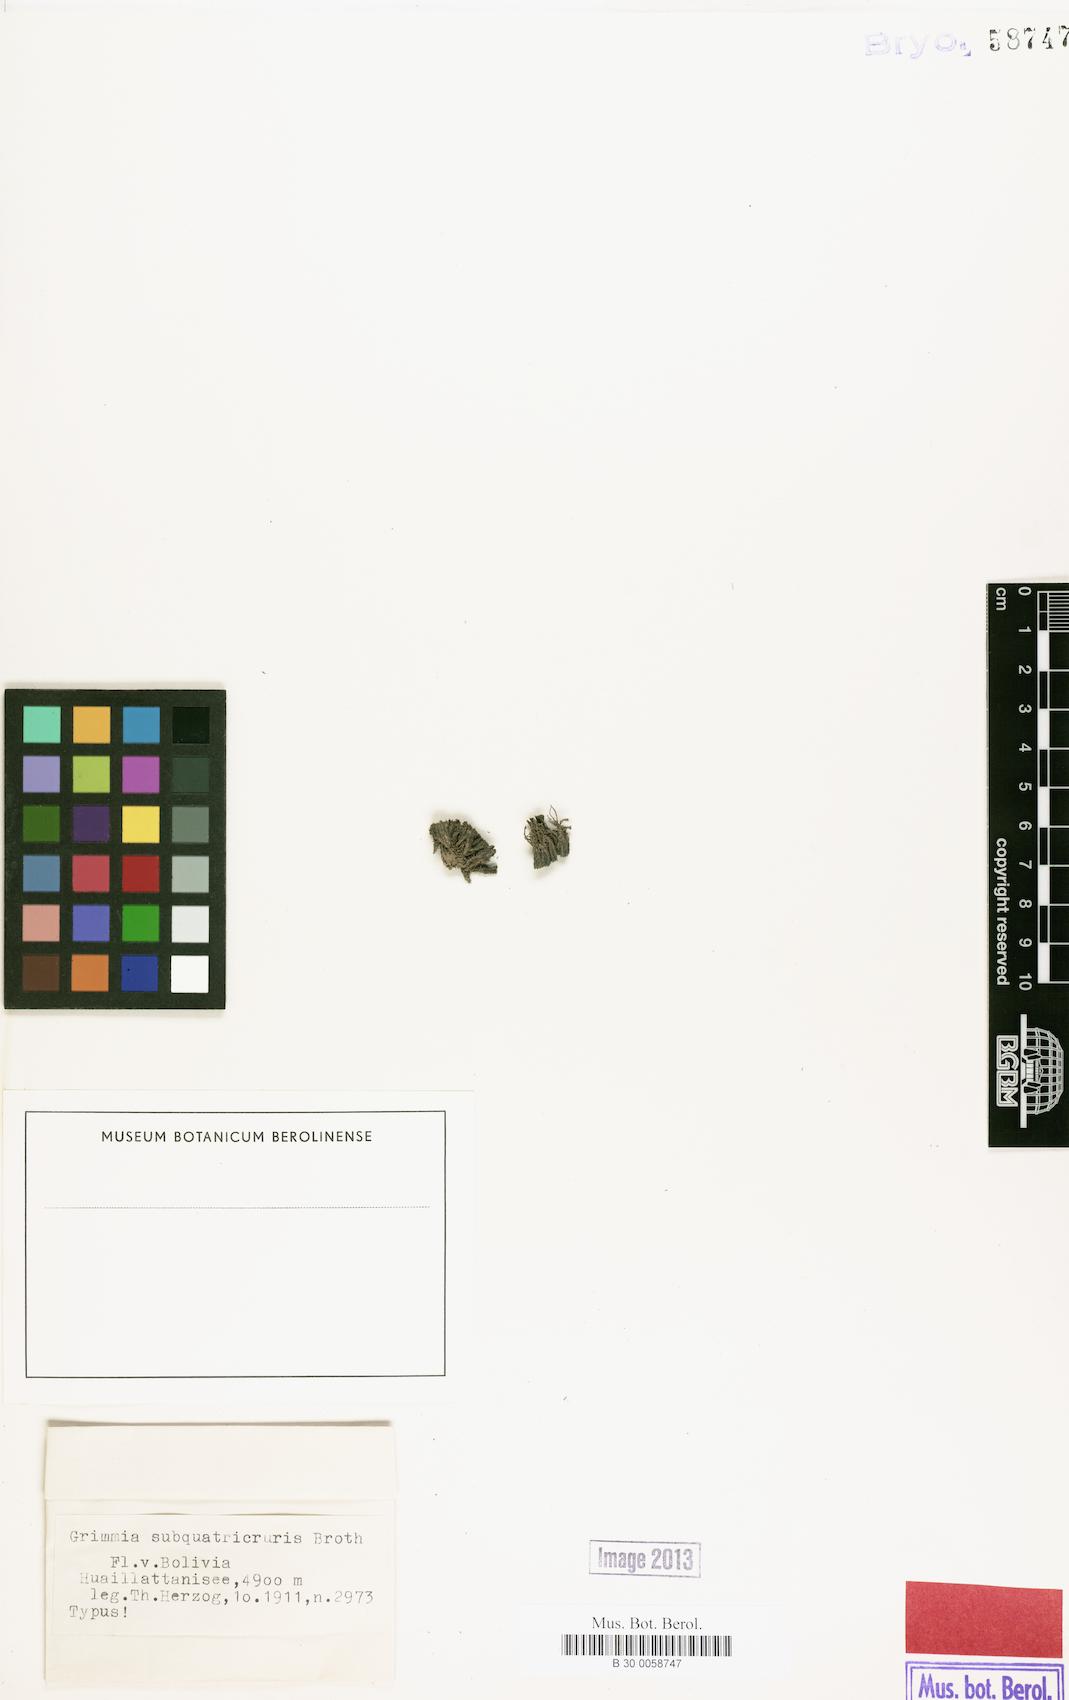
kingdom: Plantae
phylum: Bryophyta
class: Bryopsida
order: Grimmiales
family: Grimmiaceae
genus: Grimmia
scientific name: Grimmia bicolor
